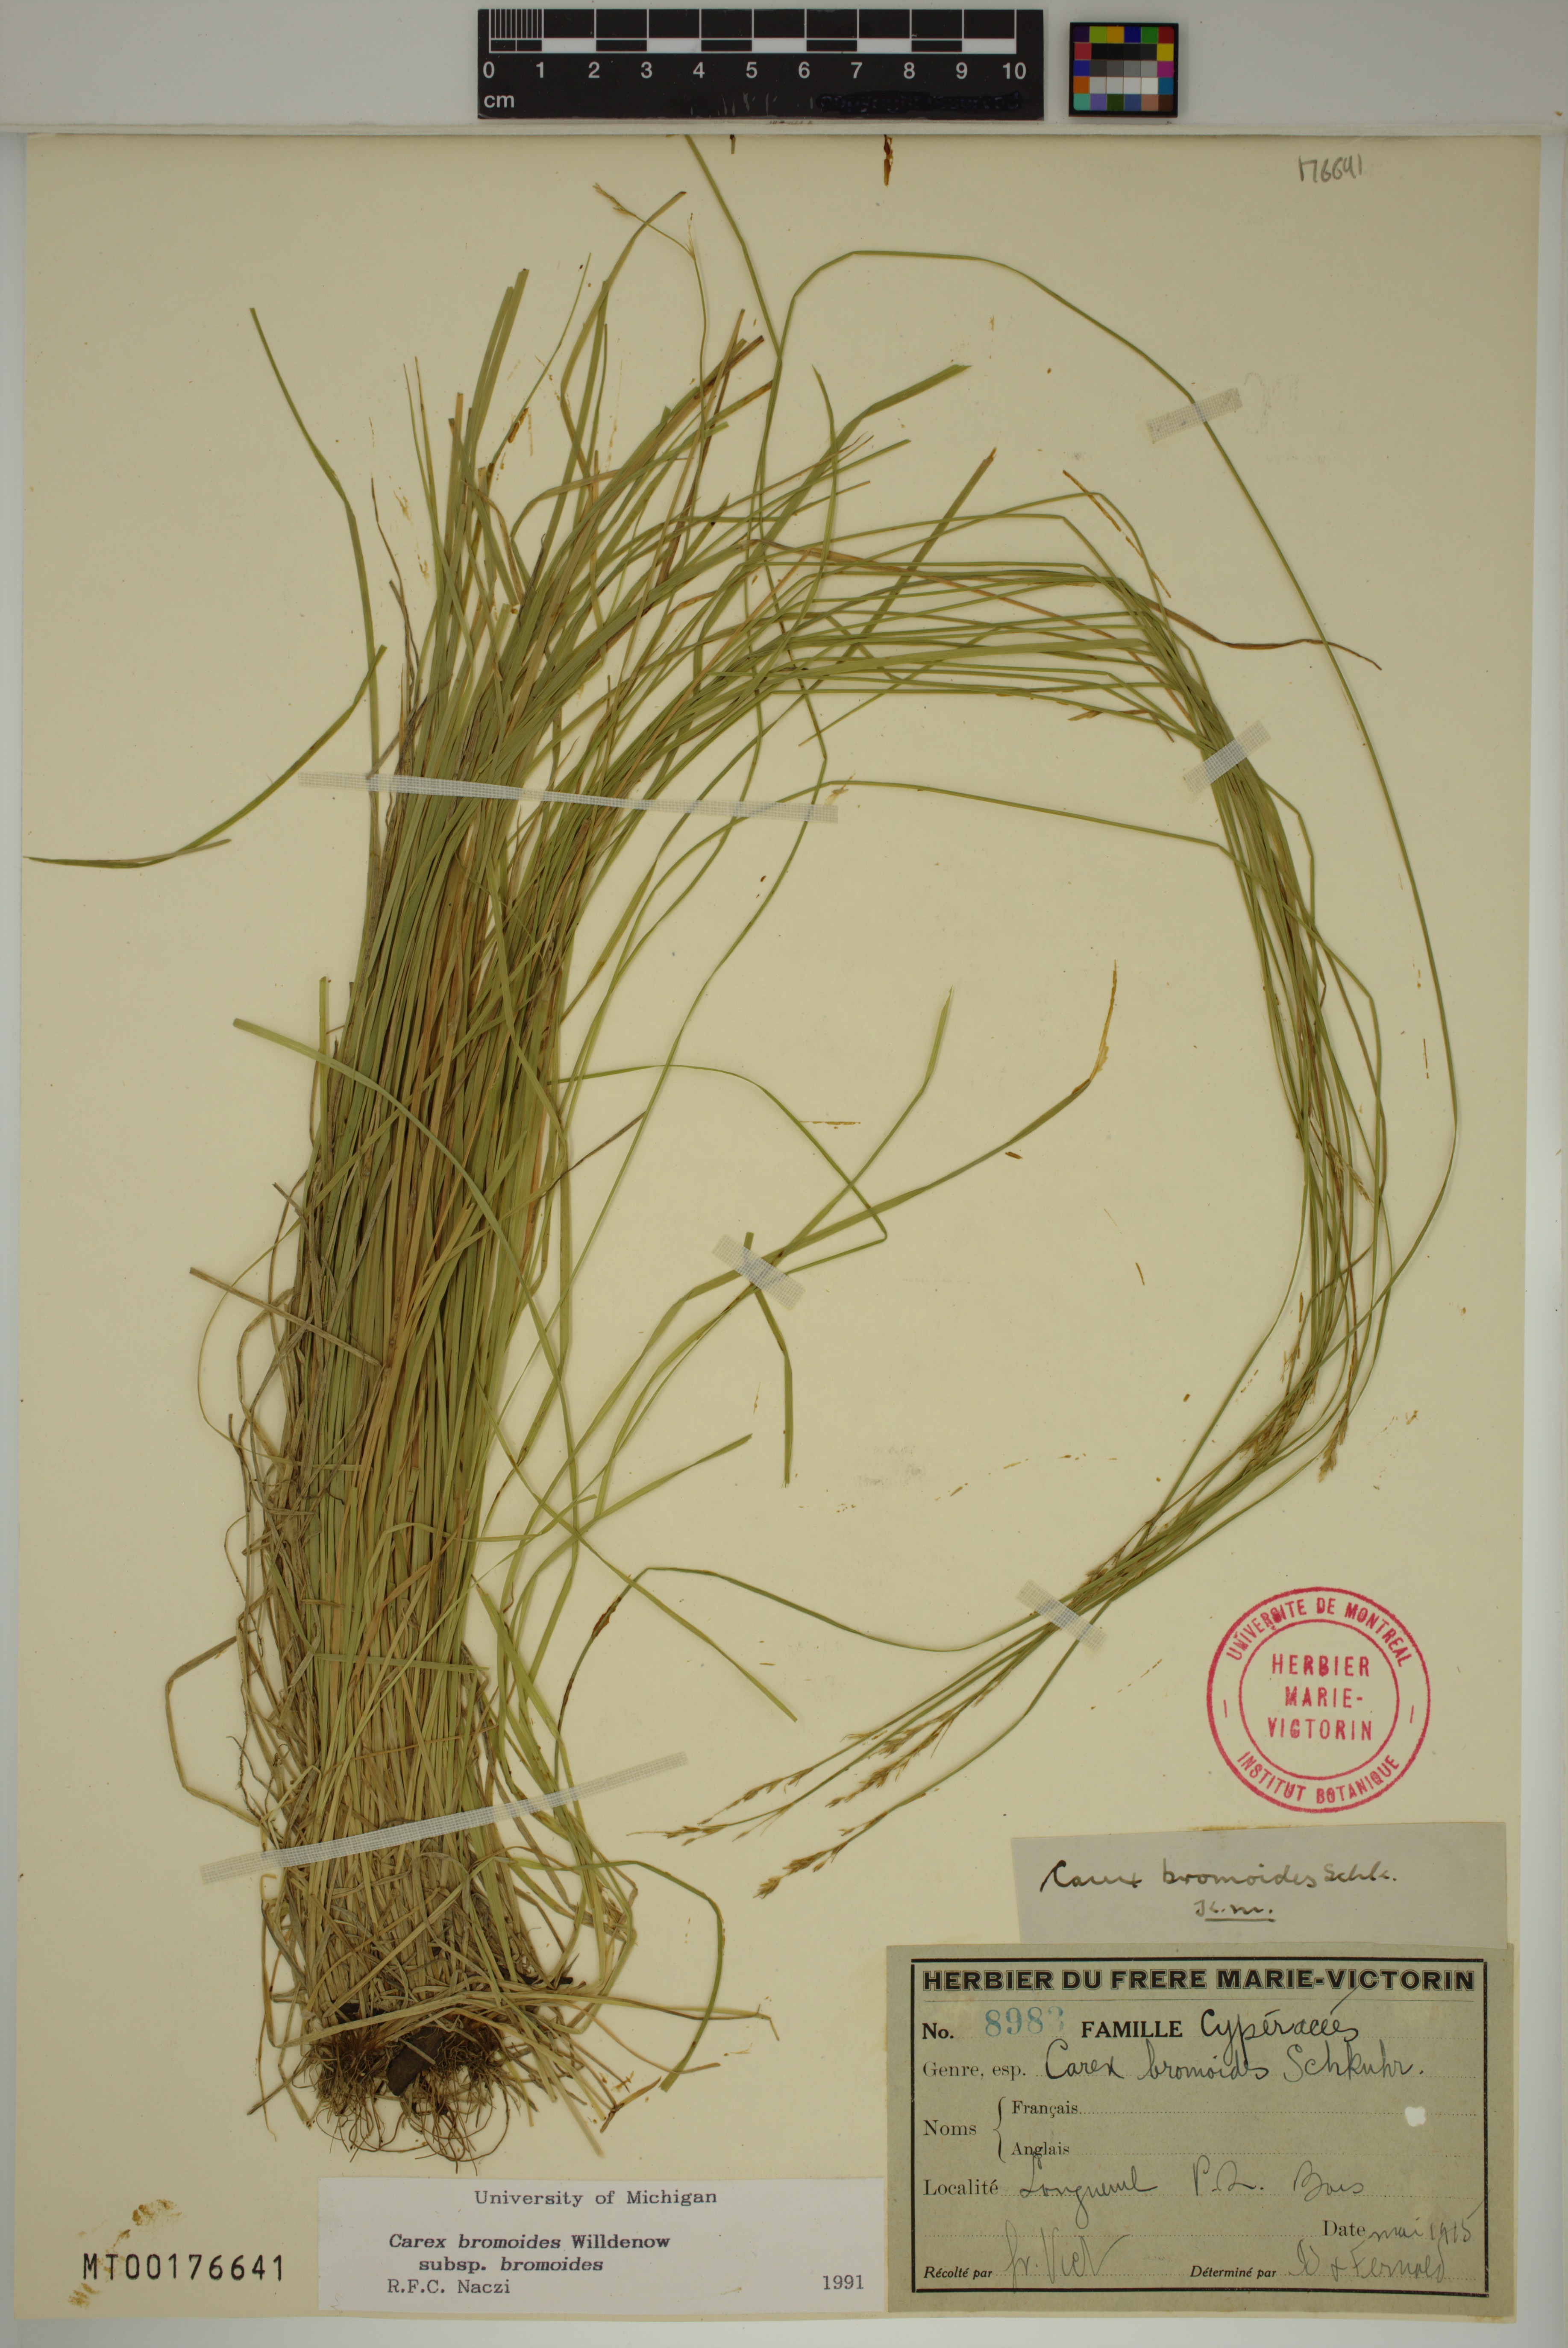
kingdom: Plantae
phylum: Tracheophyta
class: Liliopsida
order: Poales
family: Cyperaceae
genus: Carex
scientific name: Carex bromoides
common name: Brome hummock sedge
